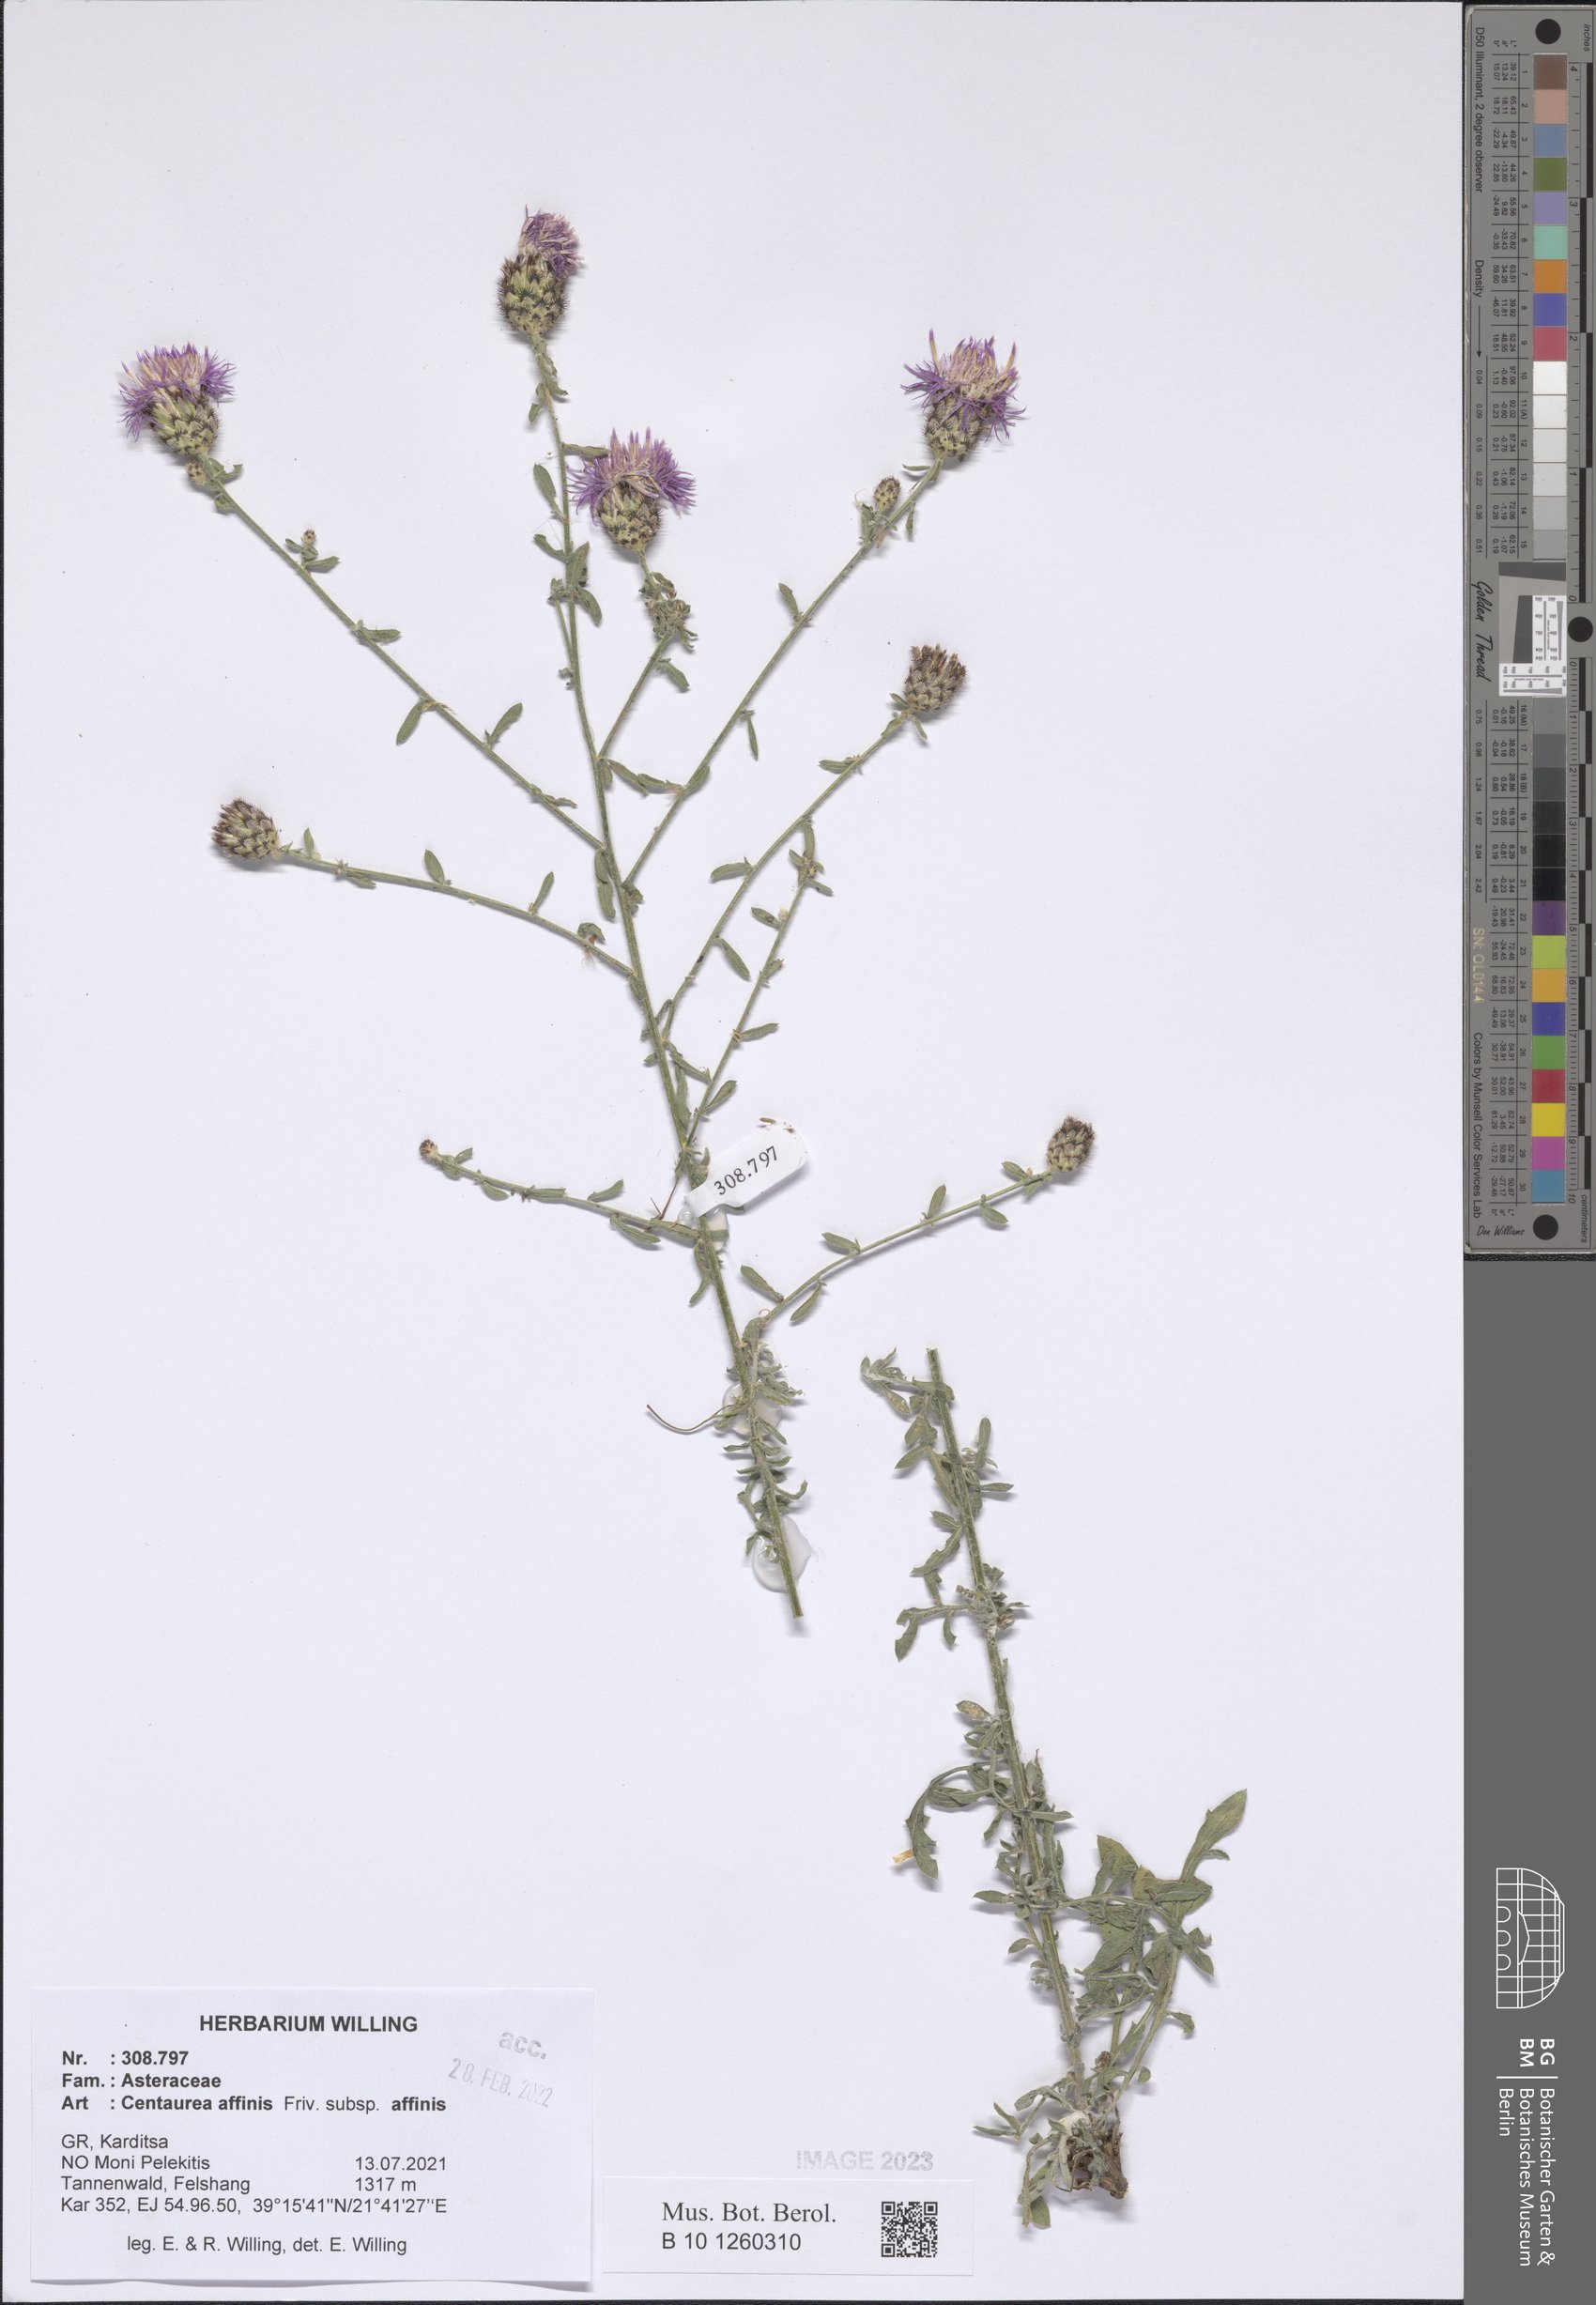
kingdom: Plantae
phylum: Tracheophyta
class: Magnoliopsida
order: Asterales
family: Asteraceae
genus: Centaurea
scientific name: Centaurea affinis
